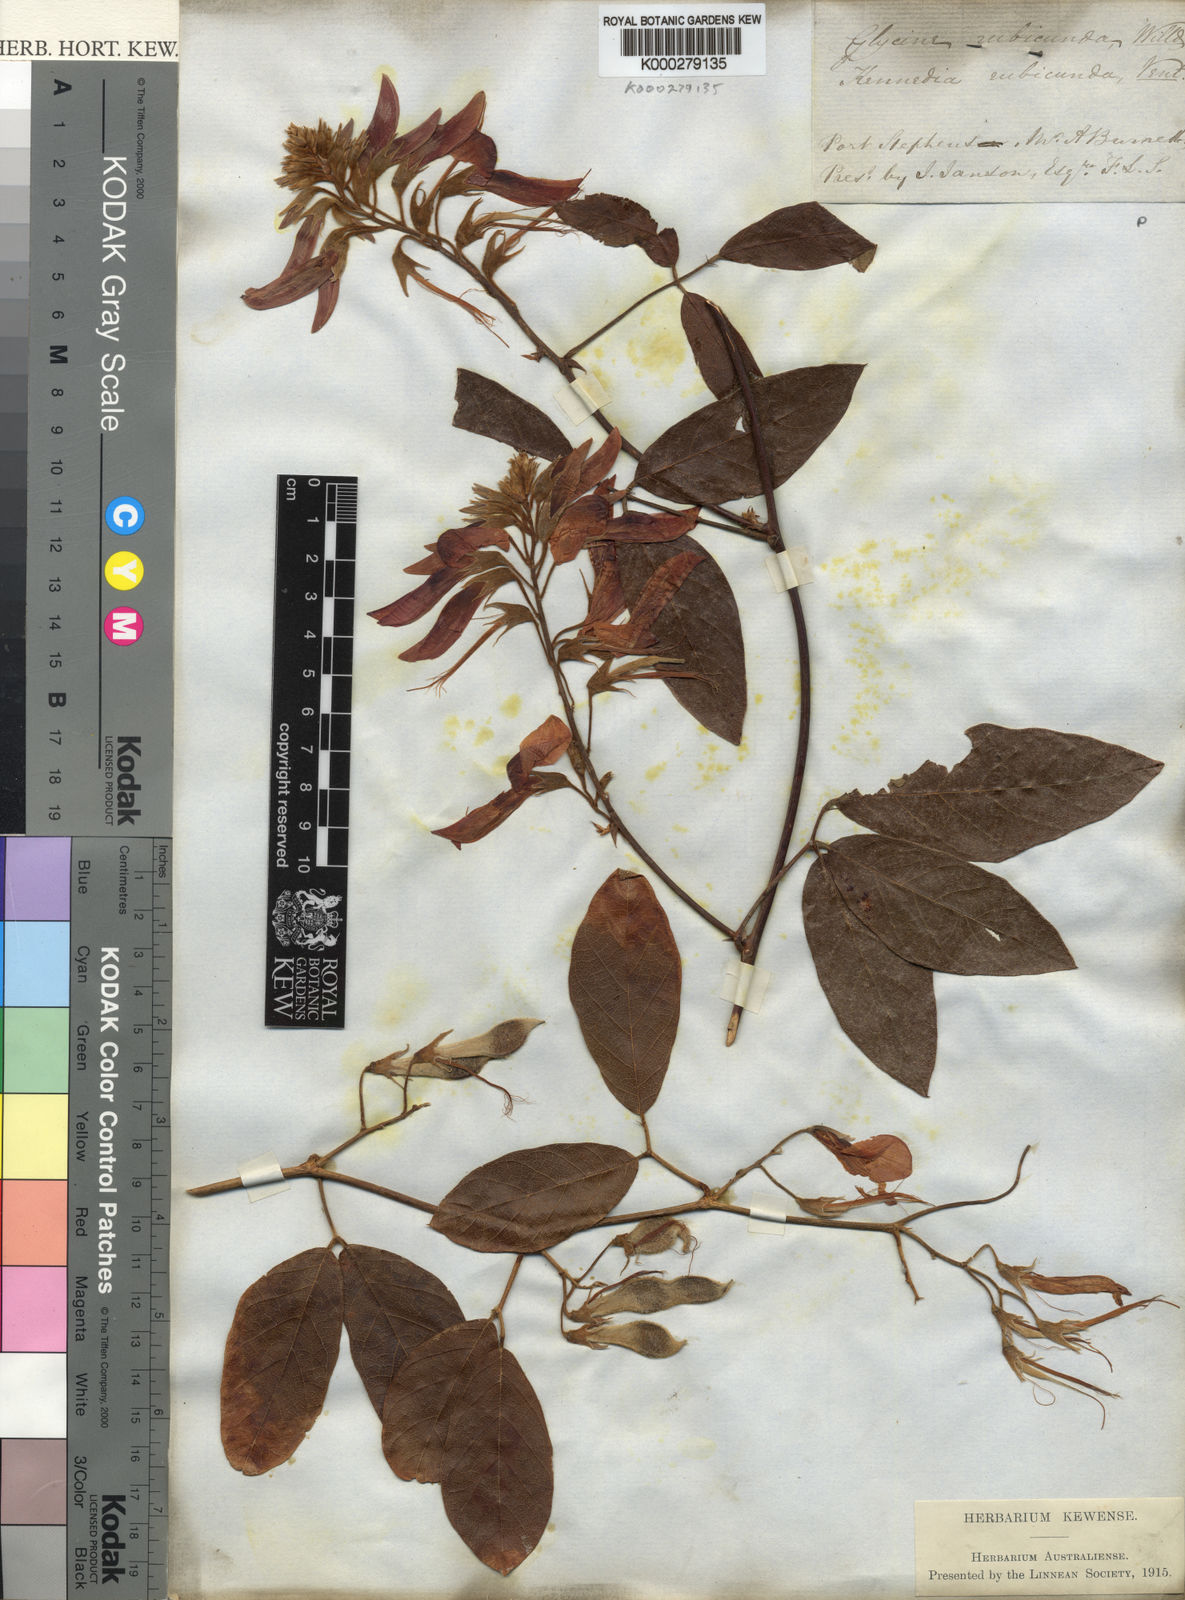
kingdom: Plantae
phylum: Tracheophyta
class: Magnoliopsida
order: Fabales
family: Fabaceae
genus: Kennedia
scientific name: Kennedia rubicunda
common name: Red kennedy-pea
